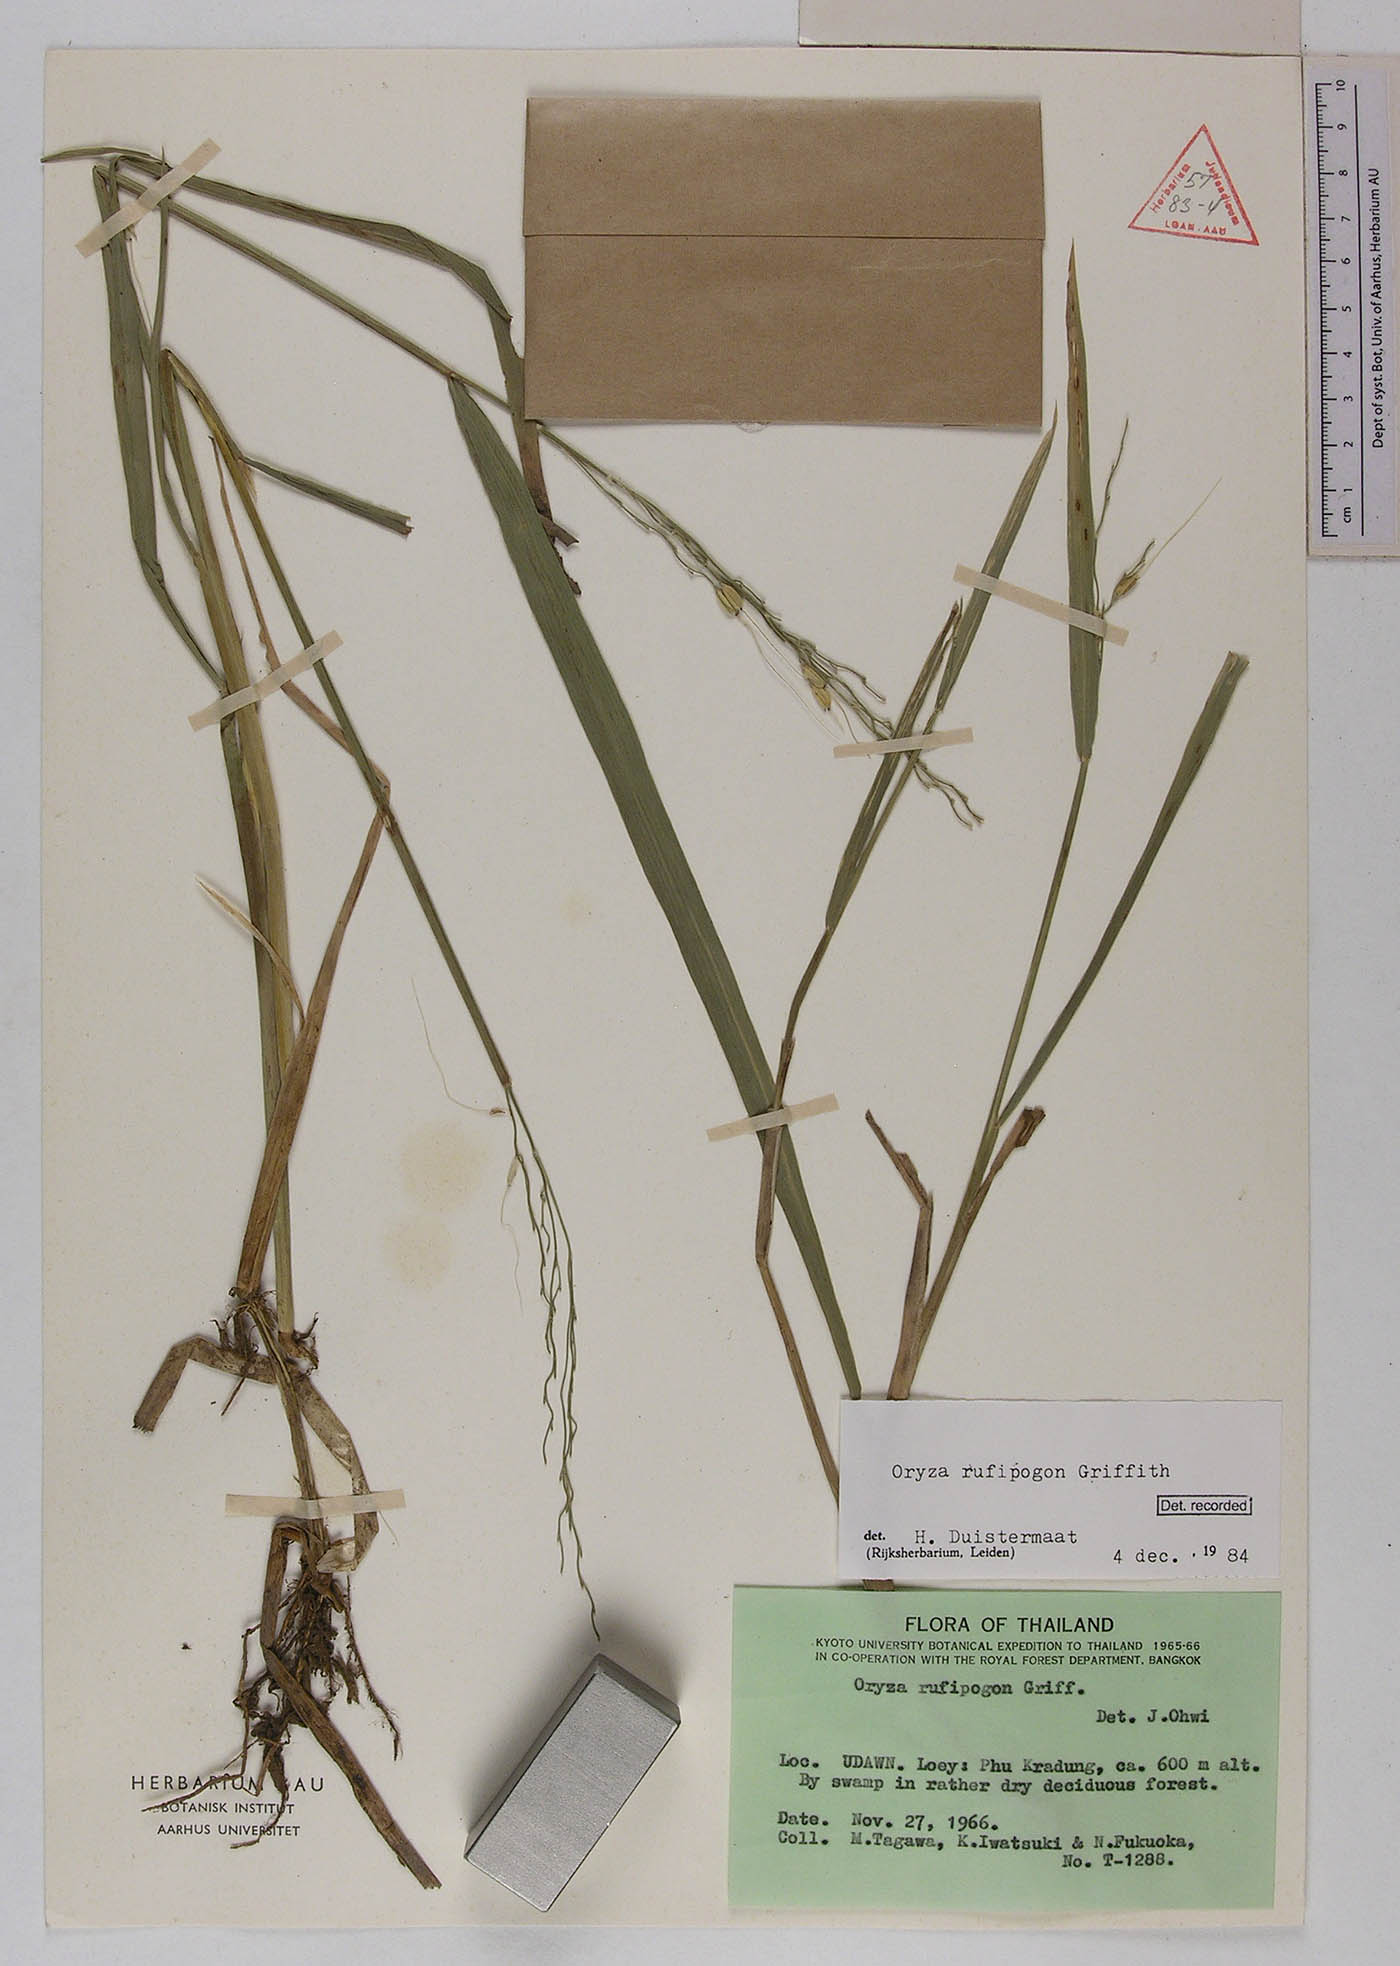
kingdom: Plantae
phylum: Tracheophyta
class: Liliopsida
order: Poales
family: Poaceae
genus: Oryza
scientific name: Oryza rufipogon
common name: Red rice
